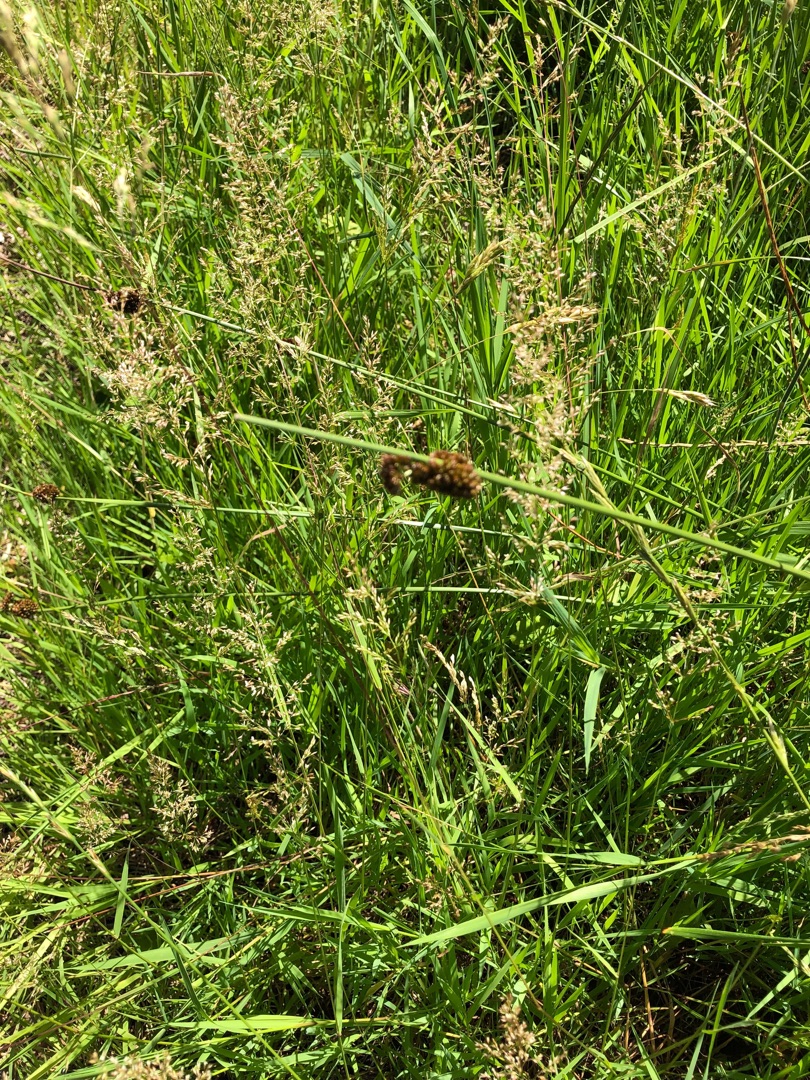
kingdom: Plantae
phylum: Tracheophyta
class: Liliopsida
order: Poales
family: Juncaceae
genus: Juncus
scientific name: Juncus conglomeratus
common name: Knop-siv
